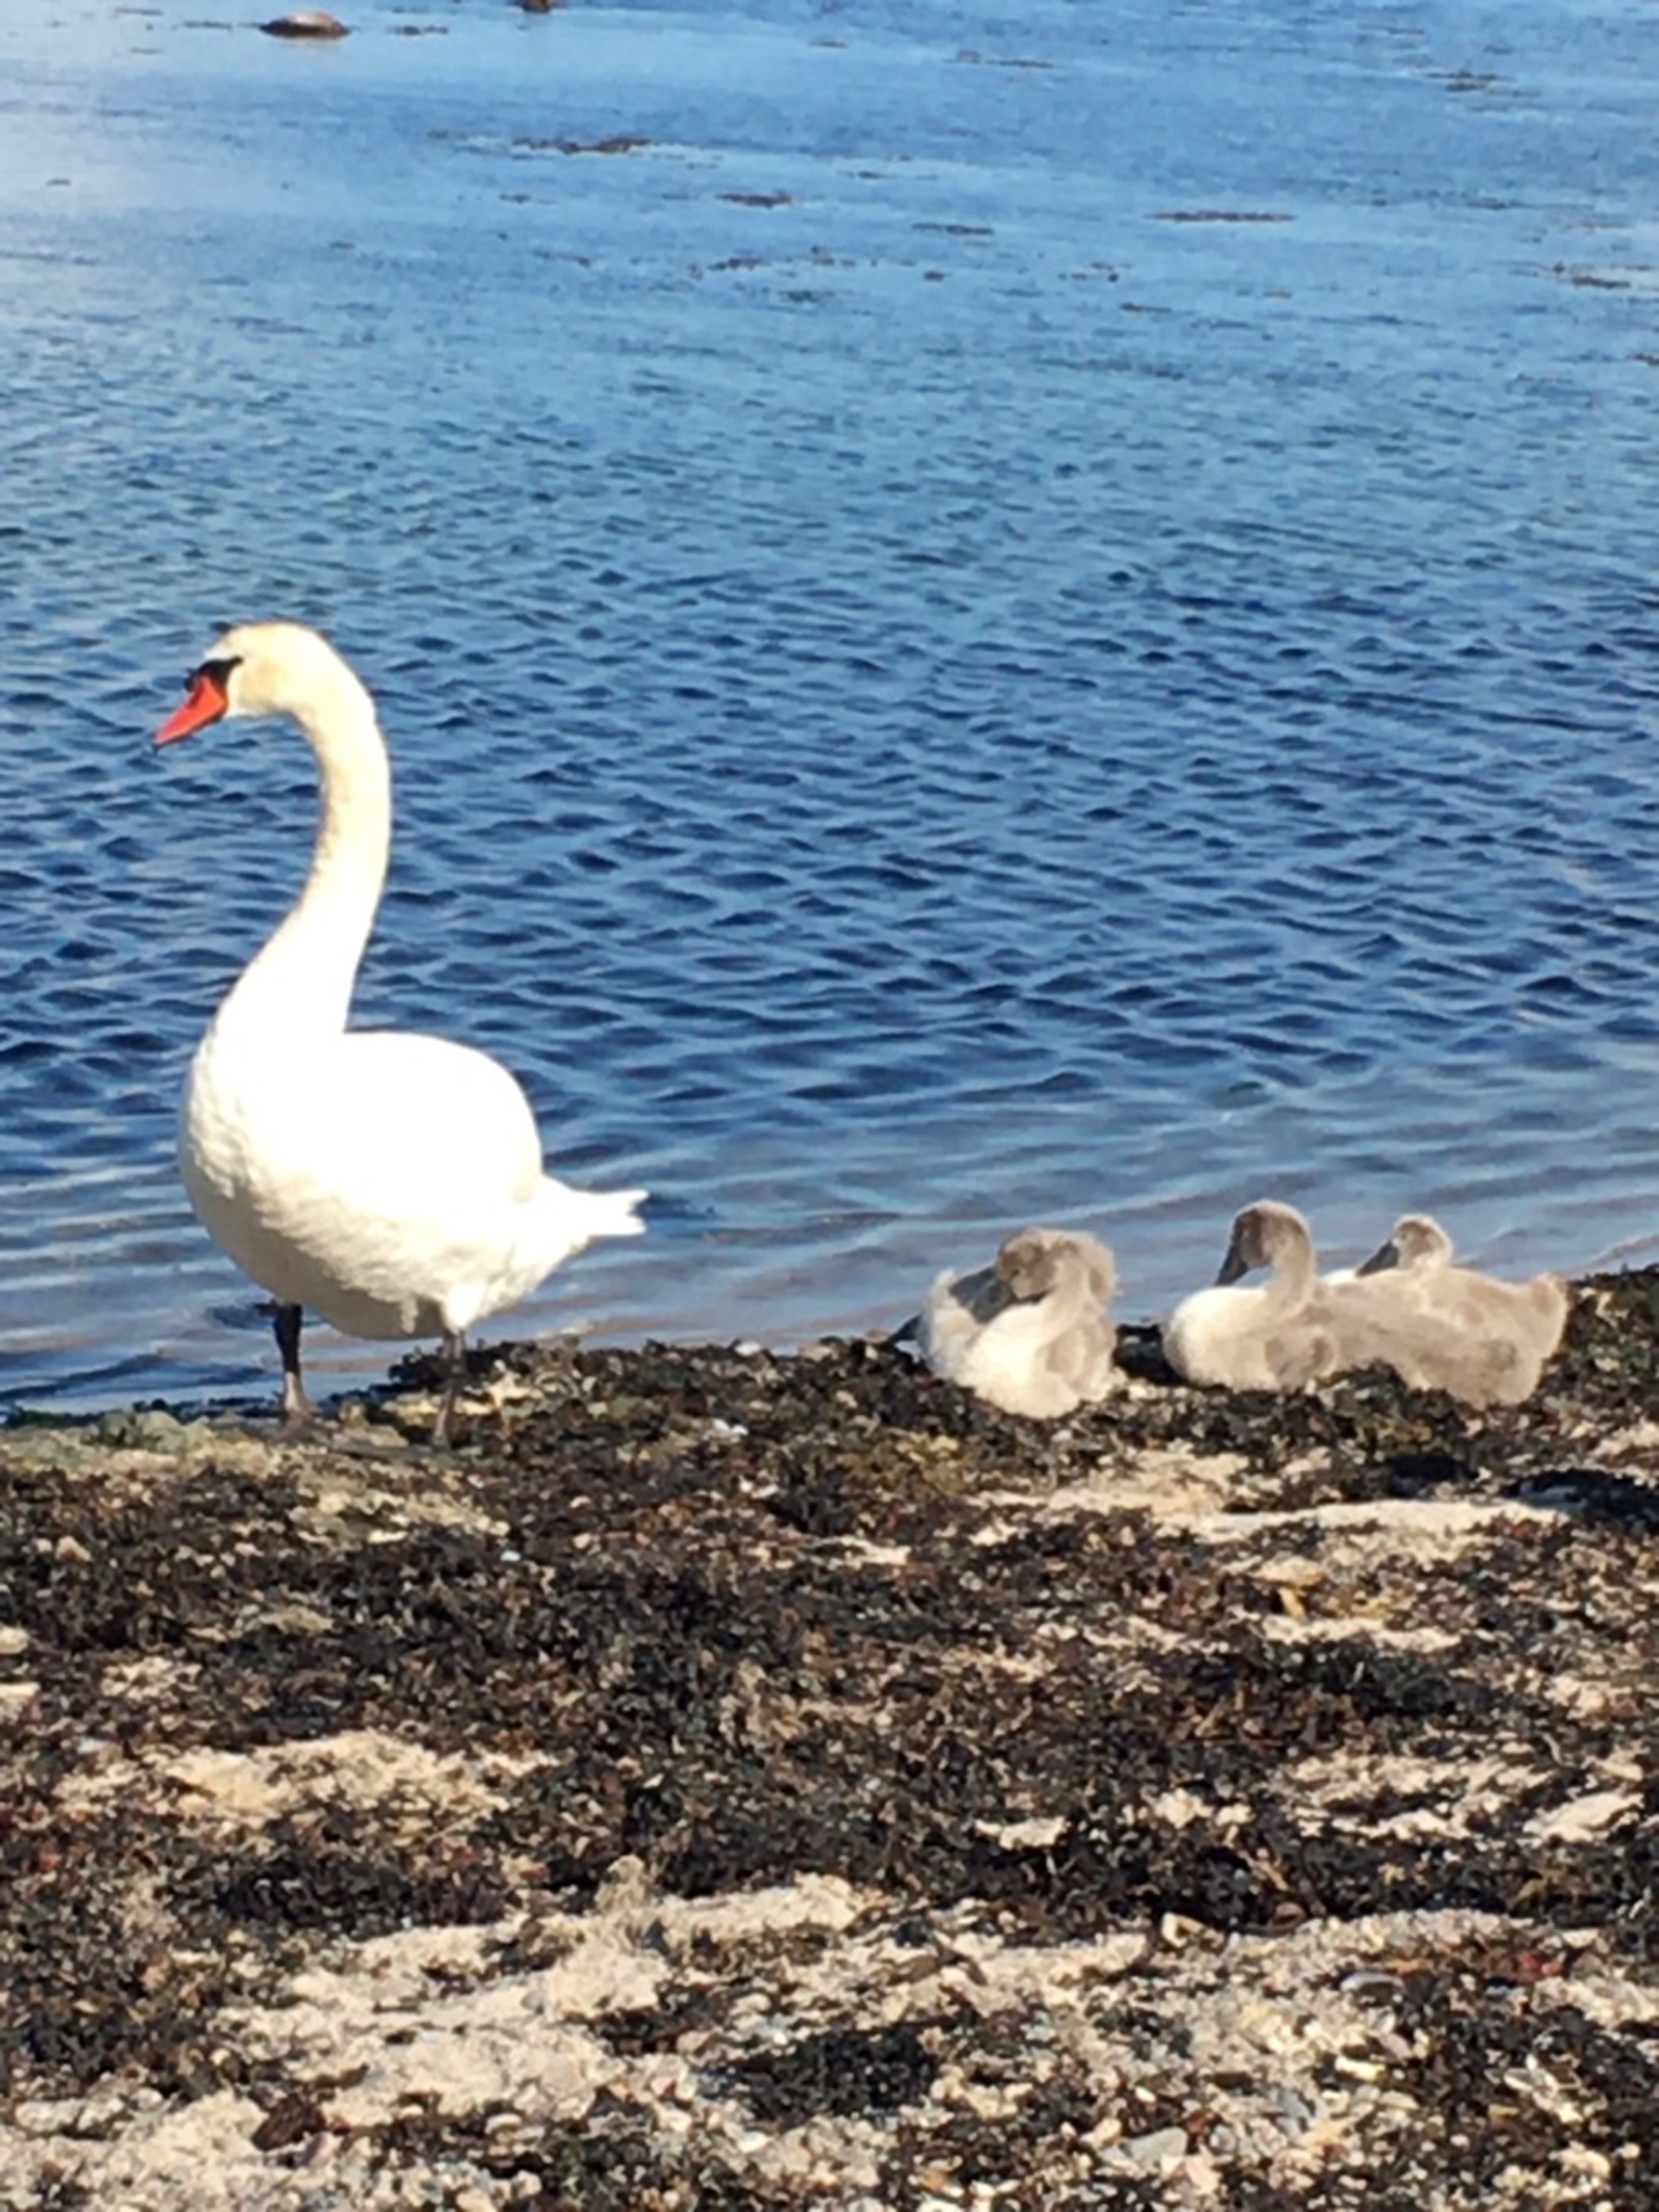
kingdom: Animalia
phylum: Chordata
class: Aves
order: Anseriformes
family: Anatidae
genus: Cygnus
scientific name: Cygnus olor
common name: Knopsvane
